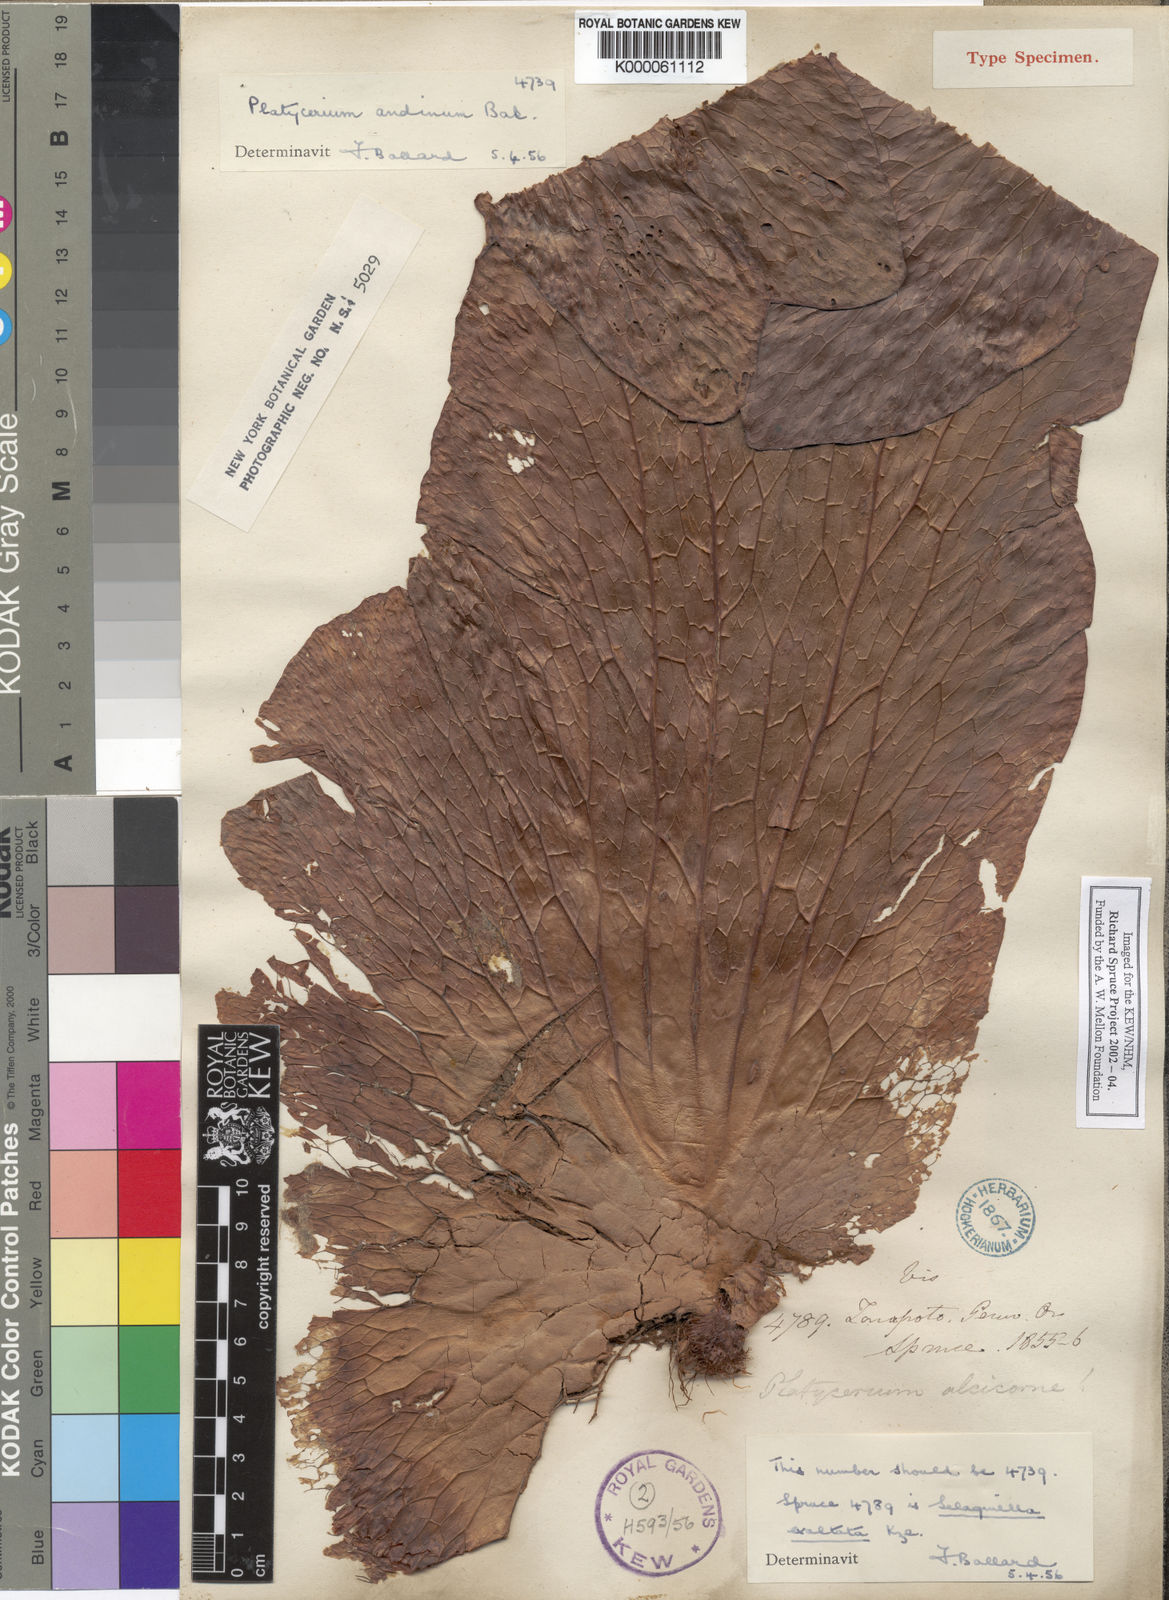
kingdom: Plantae
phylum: Tracheophyta
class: Polypodiopsida
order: Polypodiales
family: Polypodiaceae
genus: Platycerium
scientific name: Platycerium andinum
